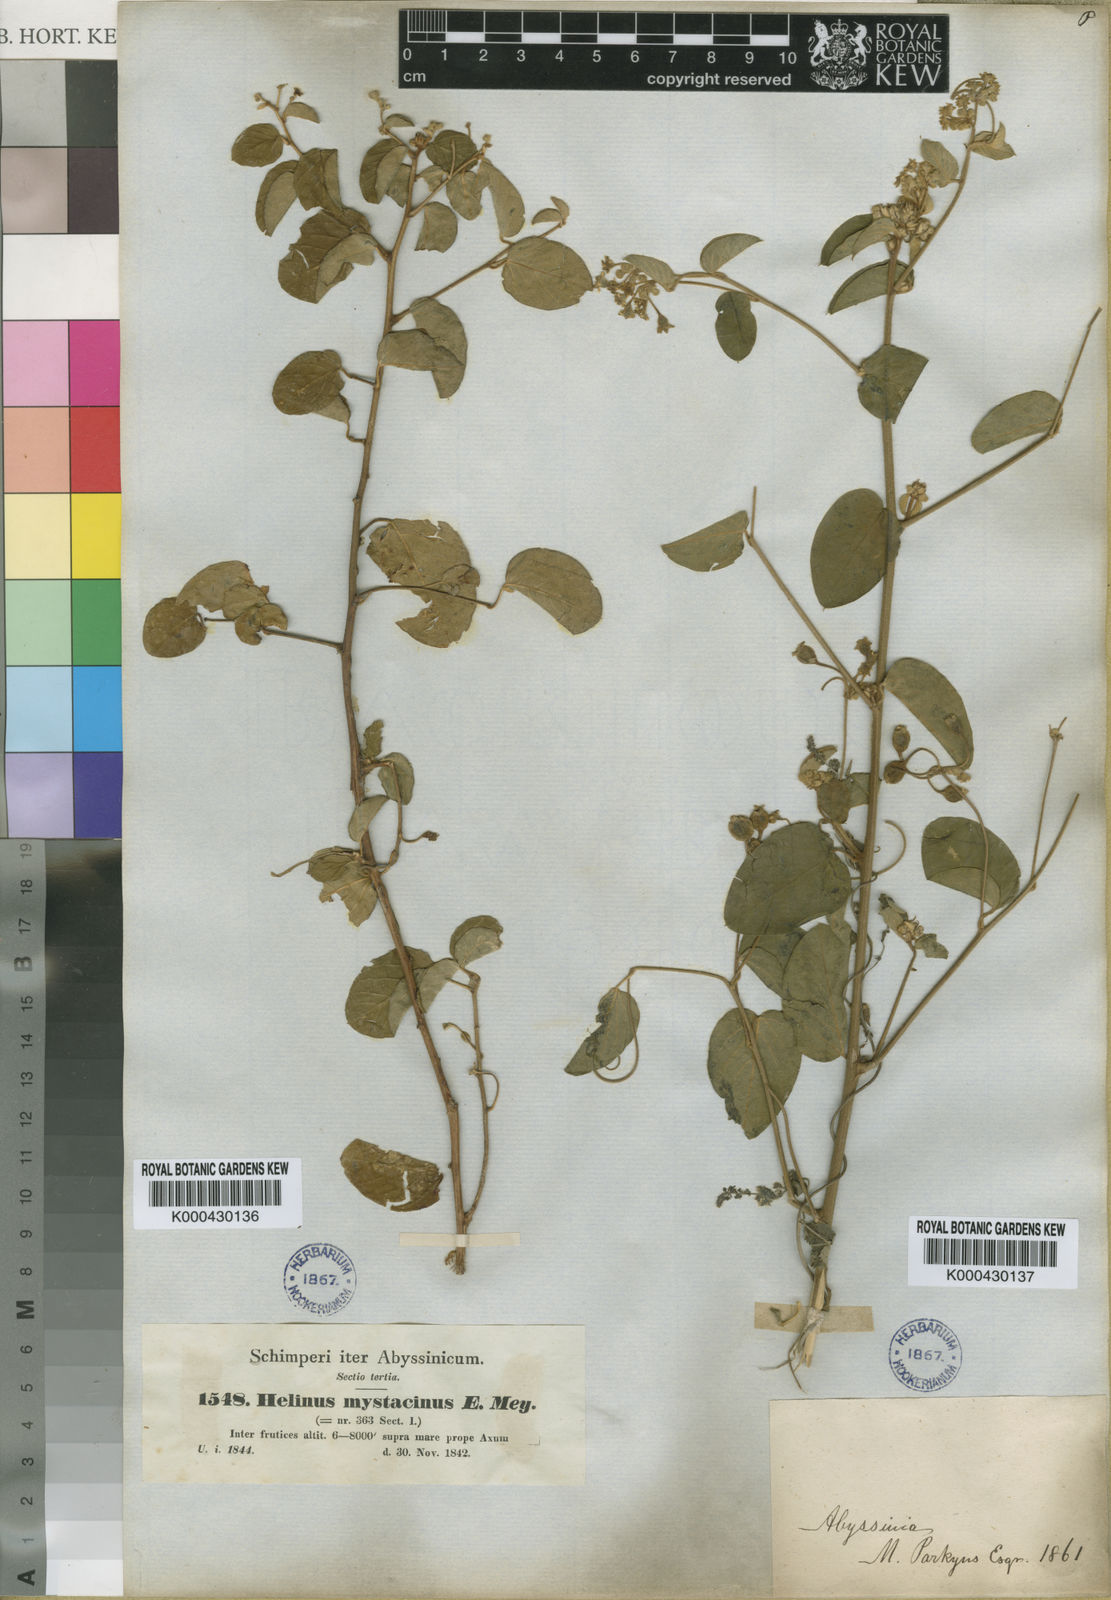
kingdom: Plantae
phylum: Tracheophyta
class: Magnoliopsida
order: Rosales
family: Rhamnaceae
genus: Helinus
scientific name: Helinus mystacinus
